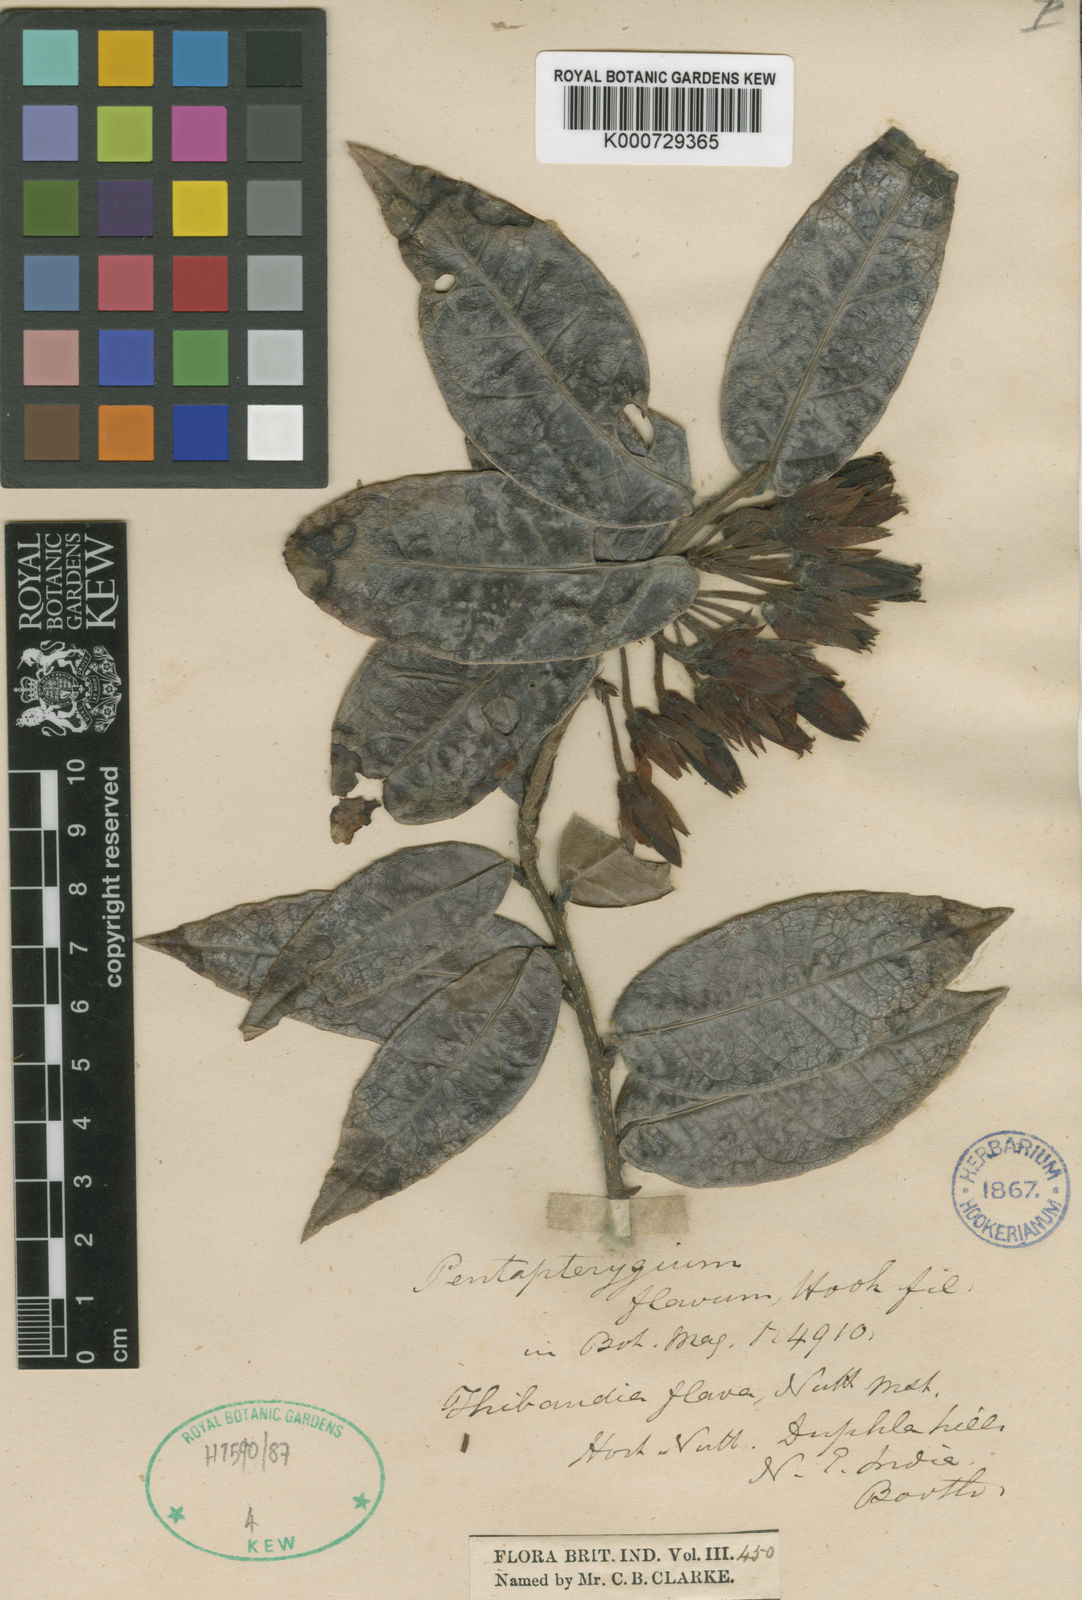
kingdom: Plantae
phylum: Tracheophyta
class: Magnoliopsida
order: Ericales
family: Ericaceae
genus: Agapetes
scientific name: Agapetes flava
